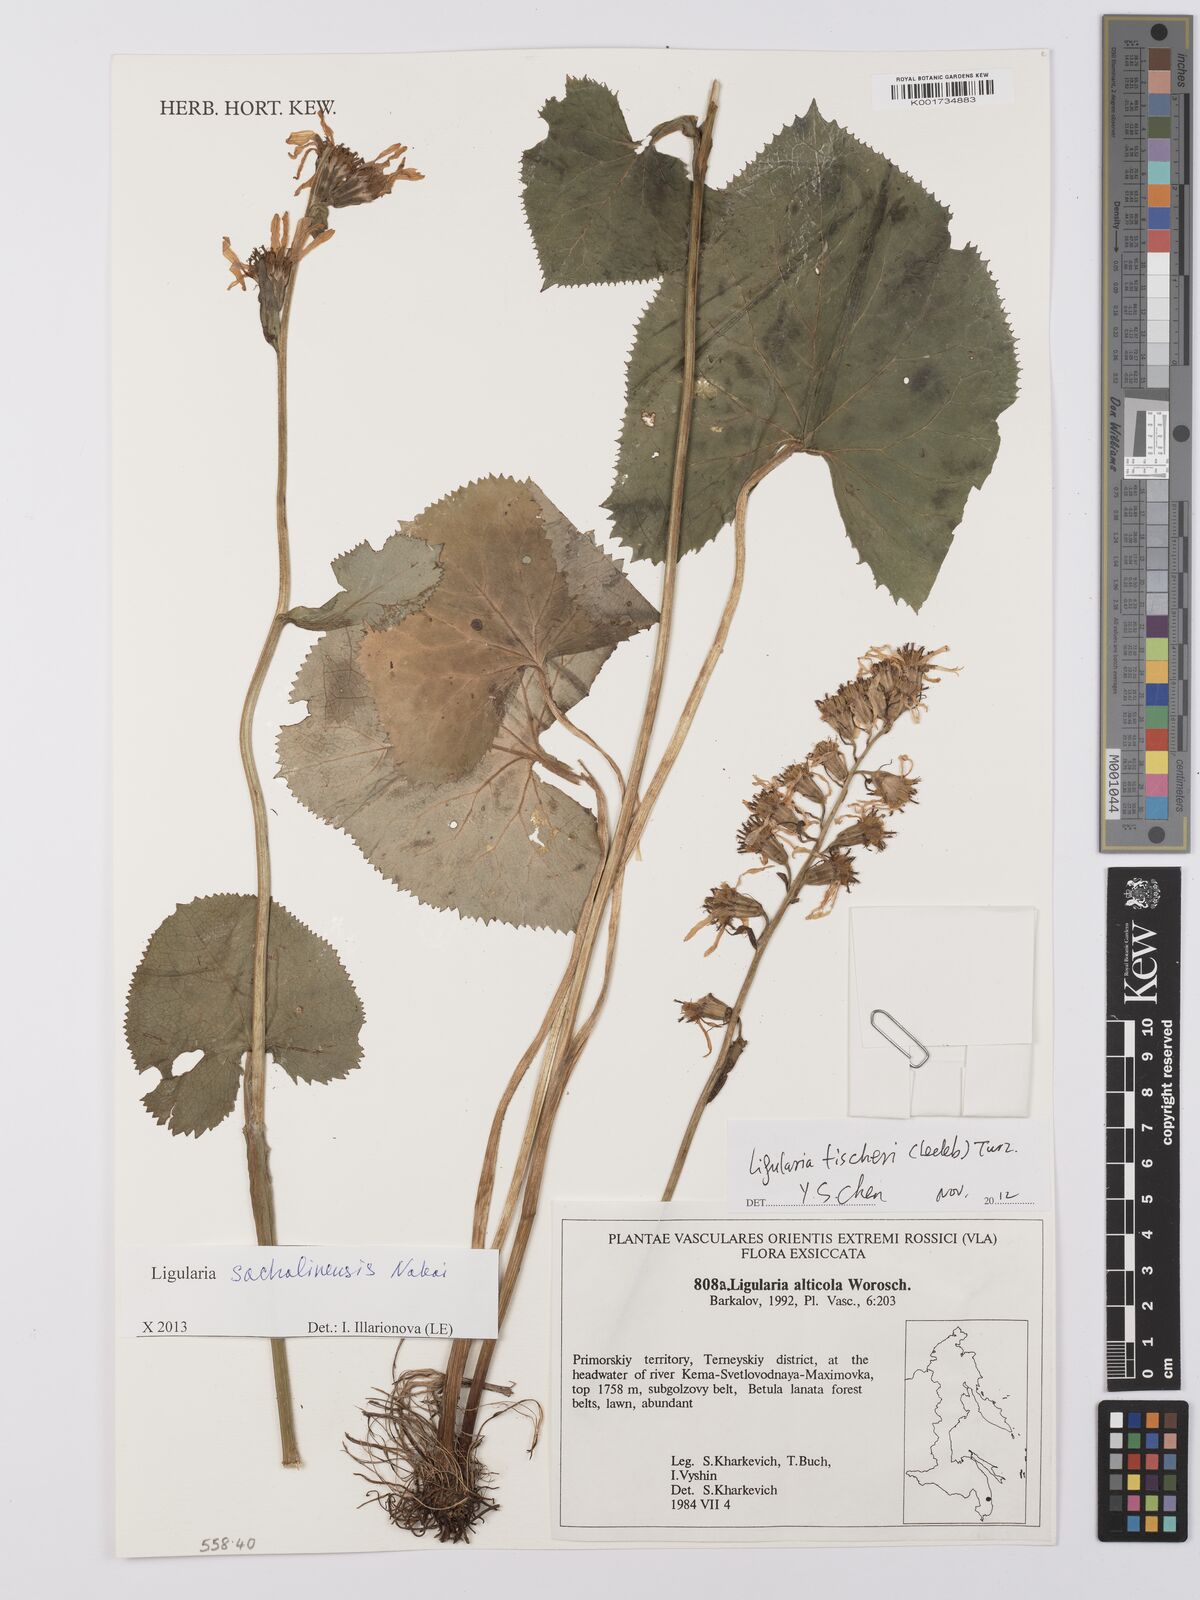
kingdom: Plantae
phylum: Tracheophyta
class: Magnoliopsida
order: Asterales
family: Asteraceae
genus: Ligularia
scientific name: Ligularia sachalinensis
